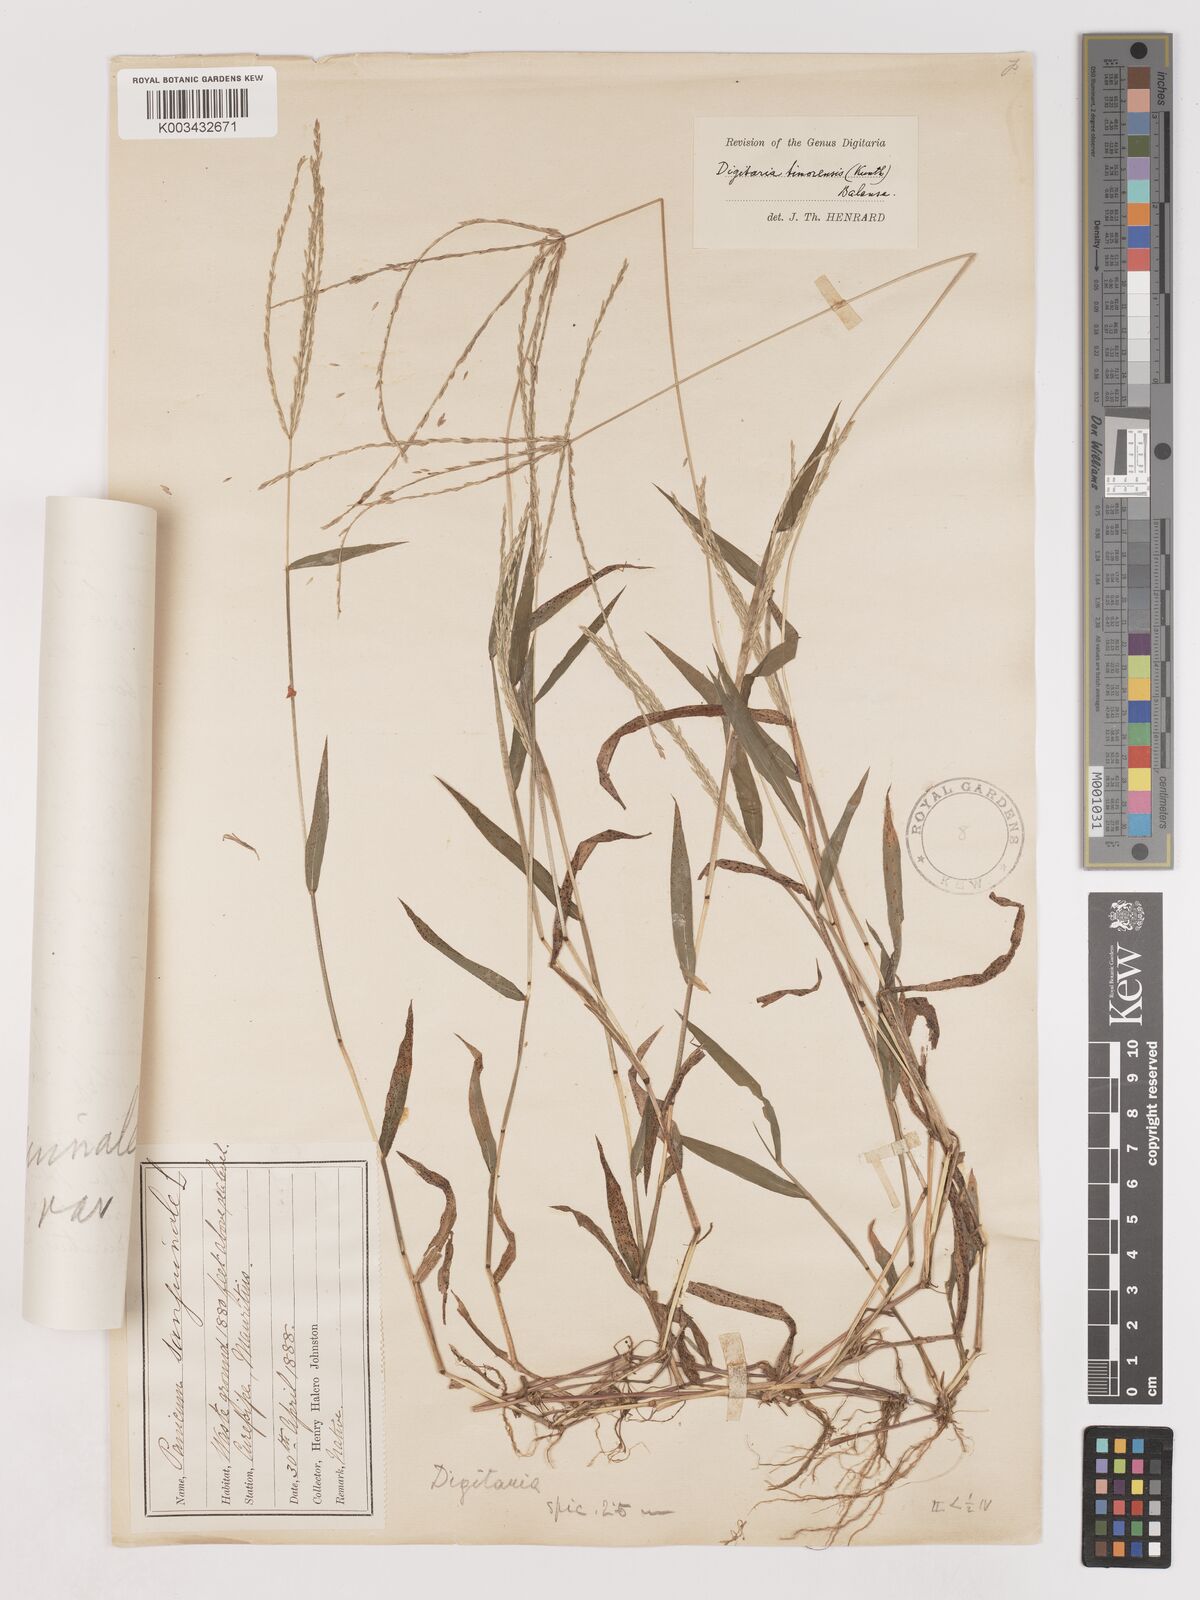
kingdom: Plantae
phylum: Tracheophyta
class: Liliopsida
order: Poales
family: Poaceae
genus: Digitaria
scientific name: Digitaria radicosa
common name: Trailing crabgrass
